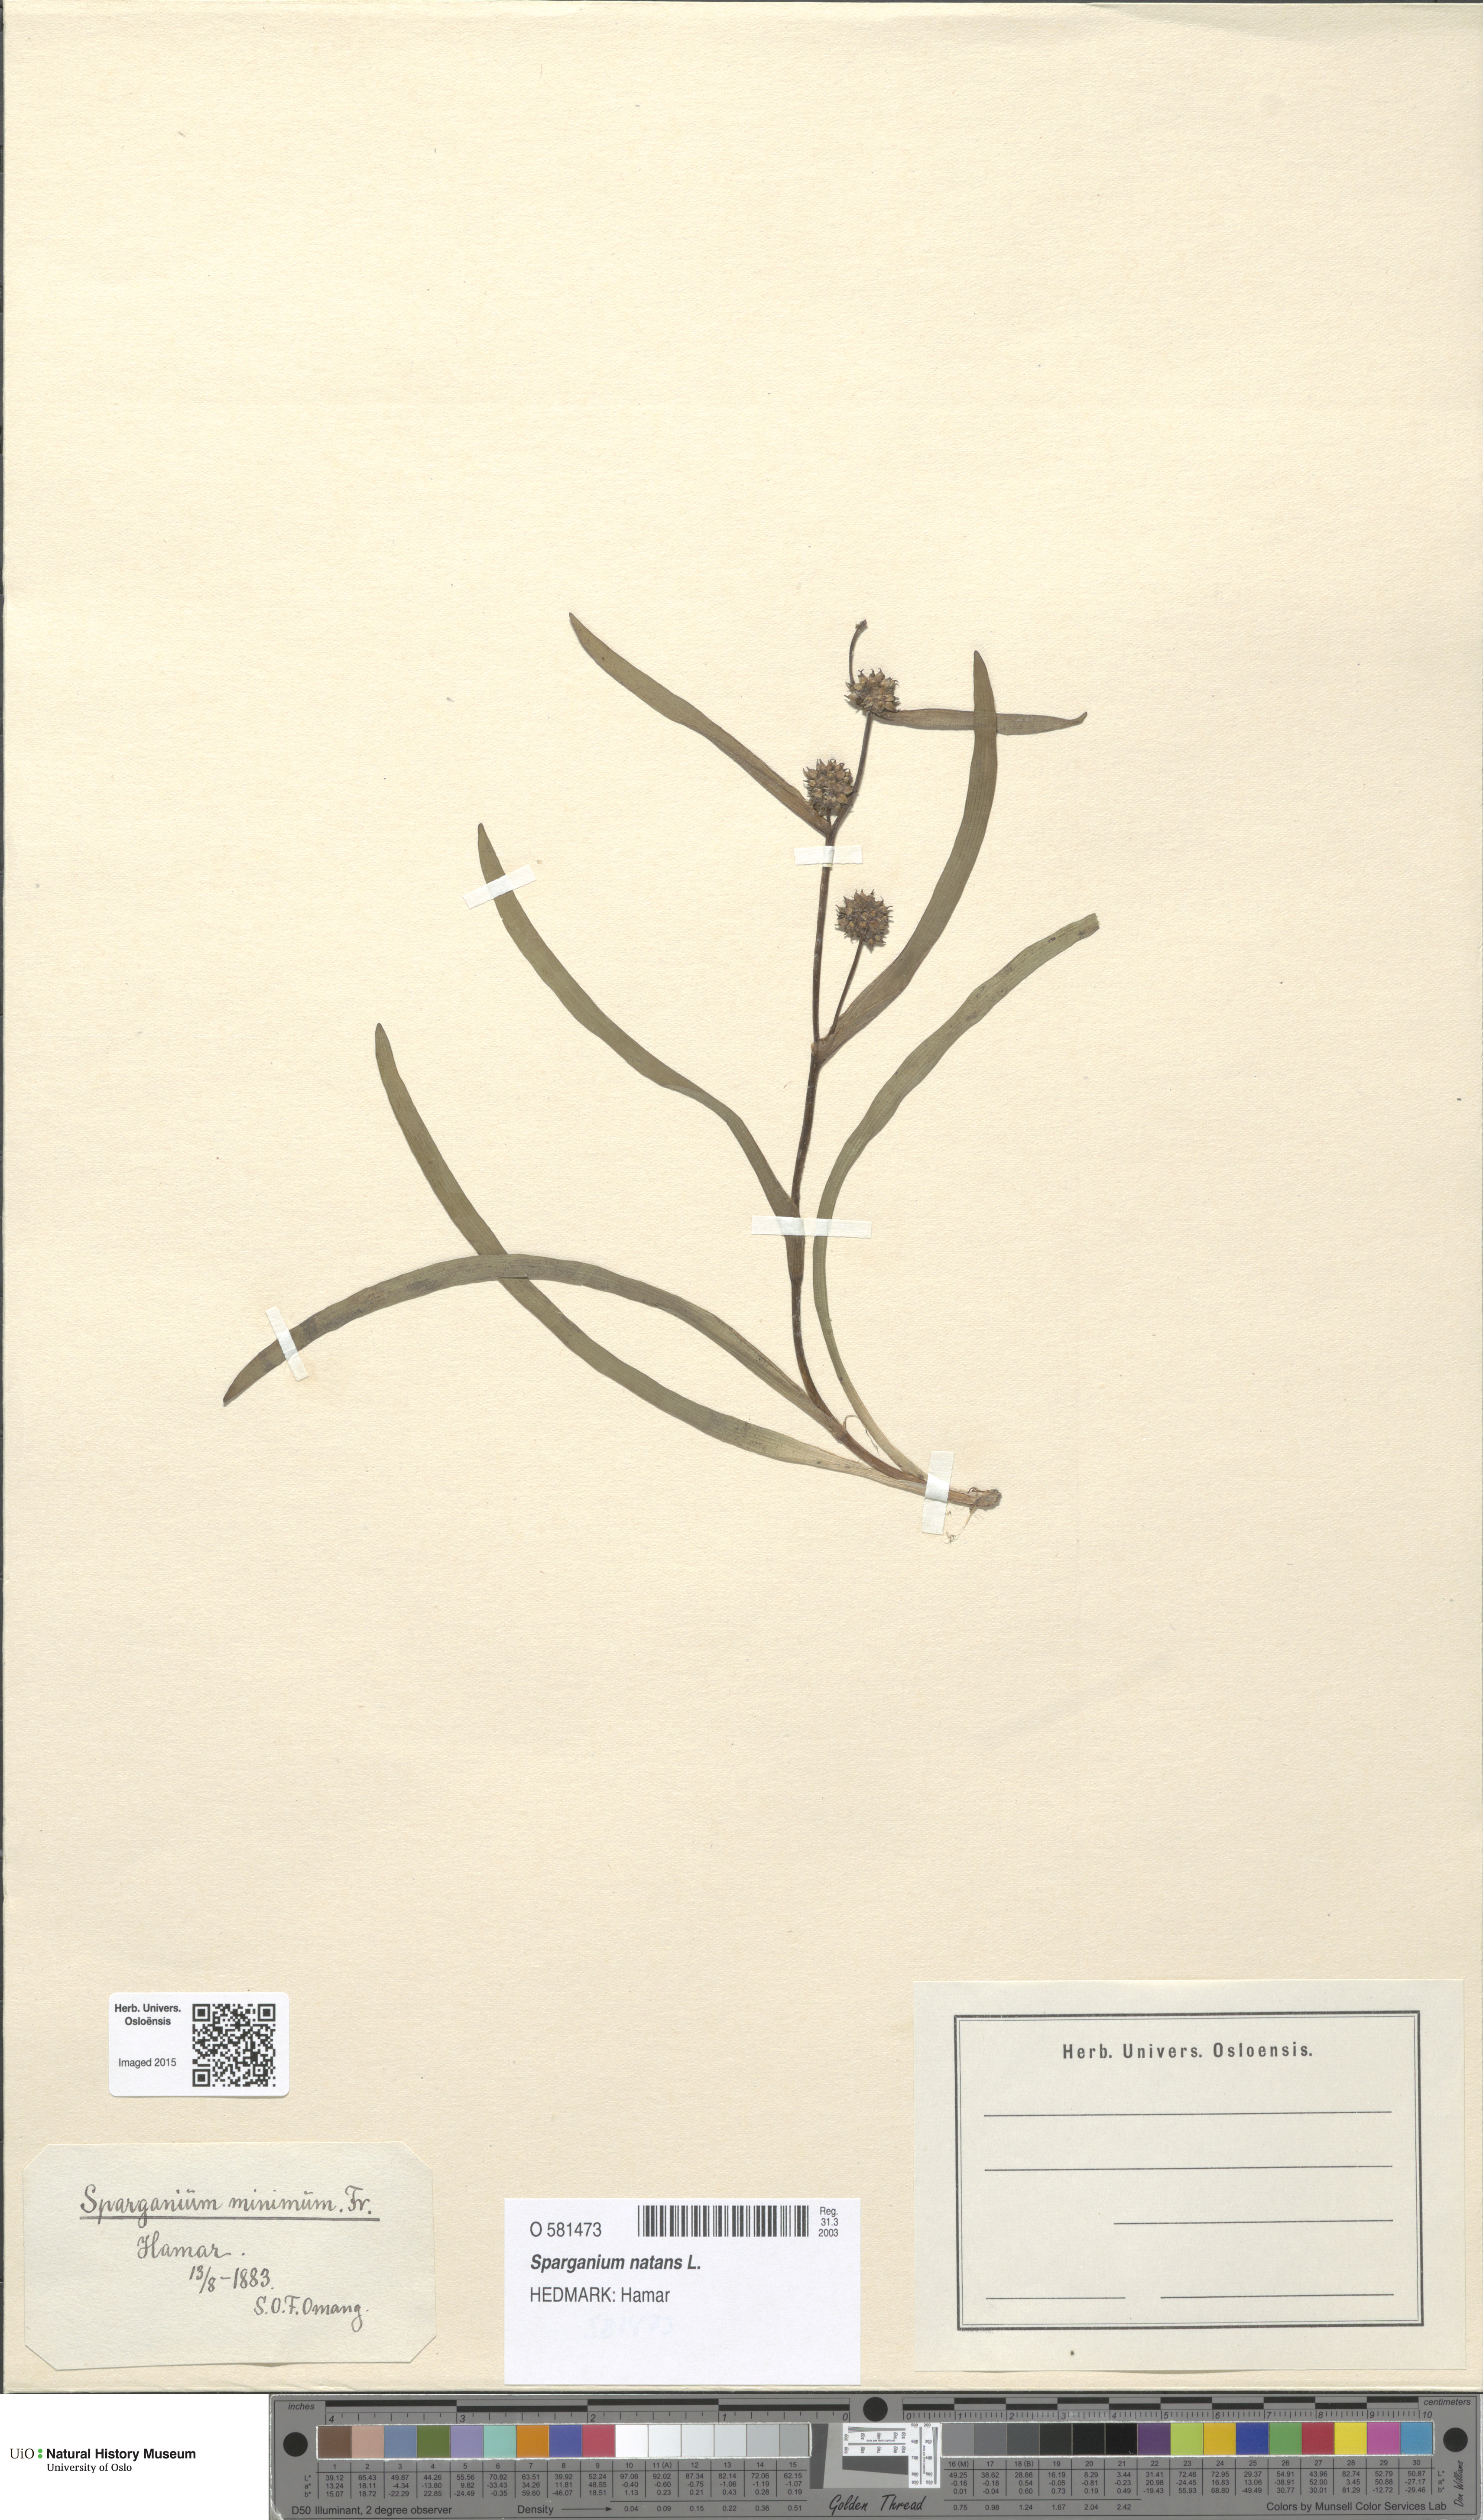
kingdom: Plantae
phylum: Tracheophyta
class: Liliopsida
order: Poales
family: Typhaceae
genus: Sparganium
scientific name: Sparganium natans
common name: Least bur-reed
